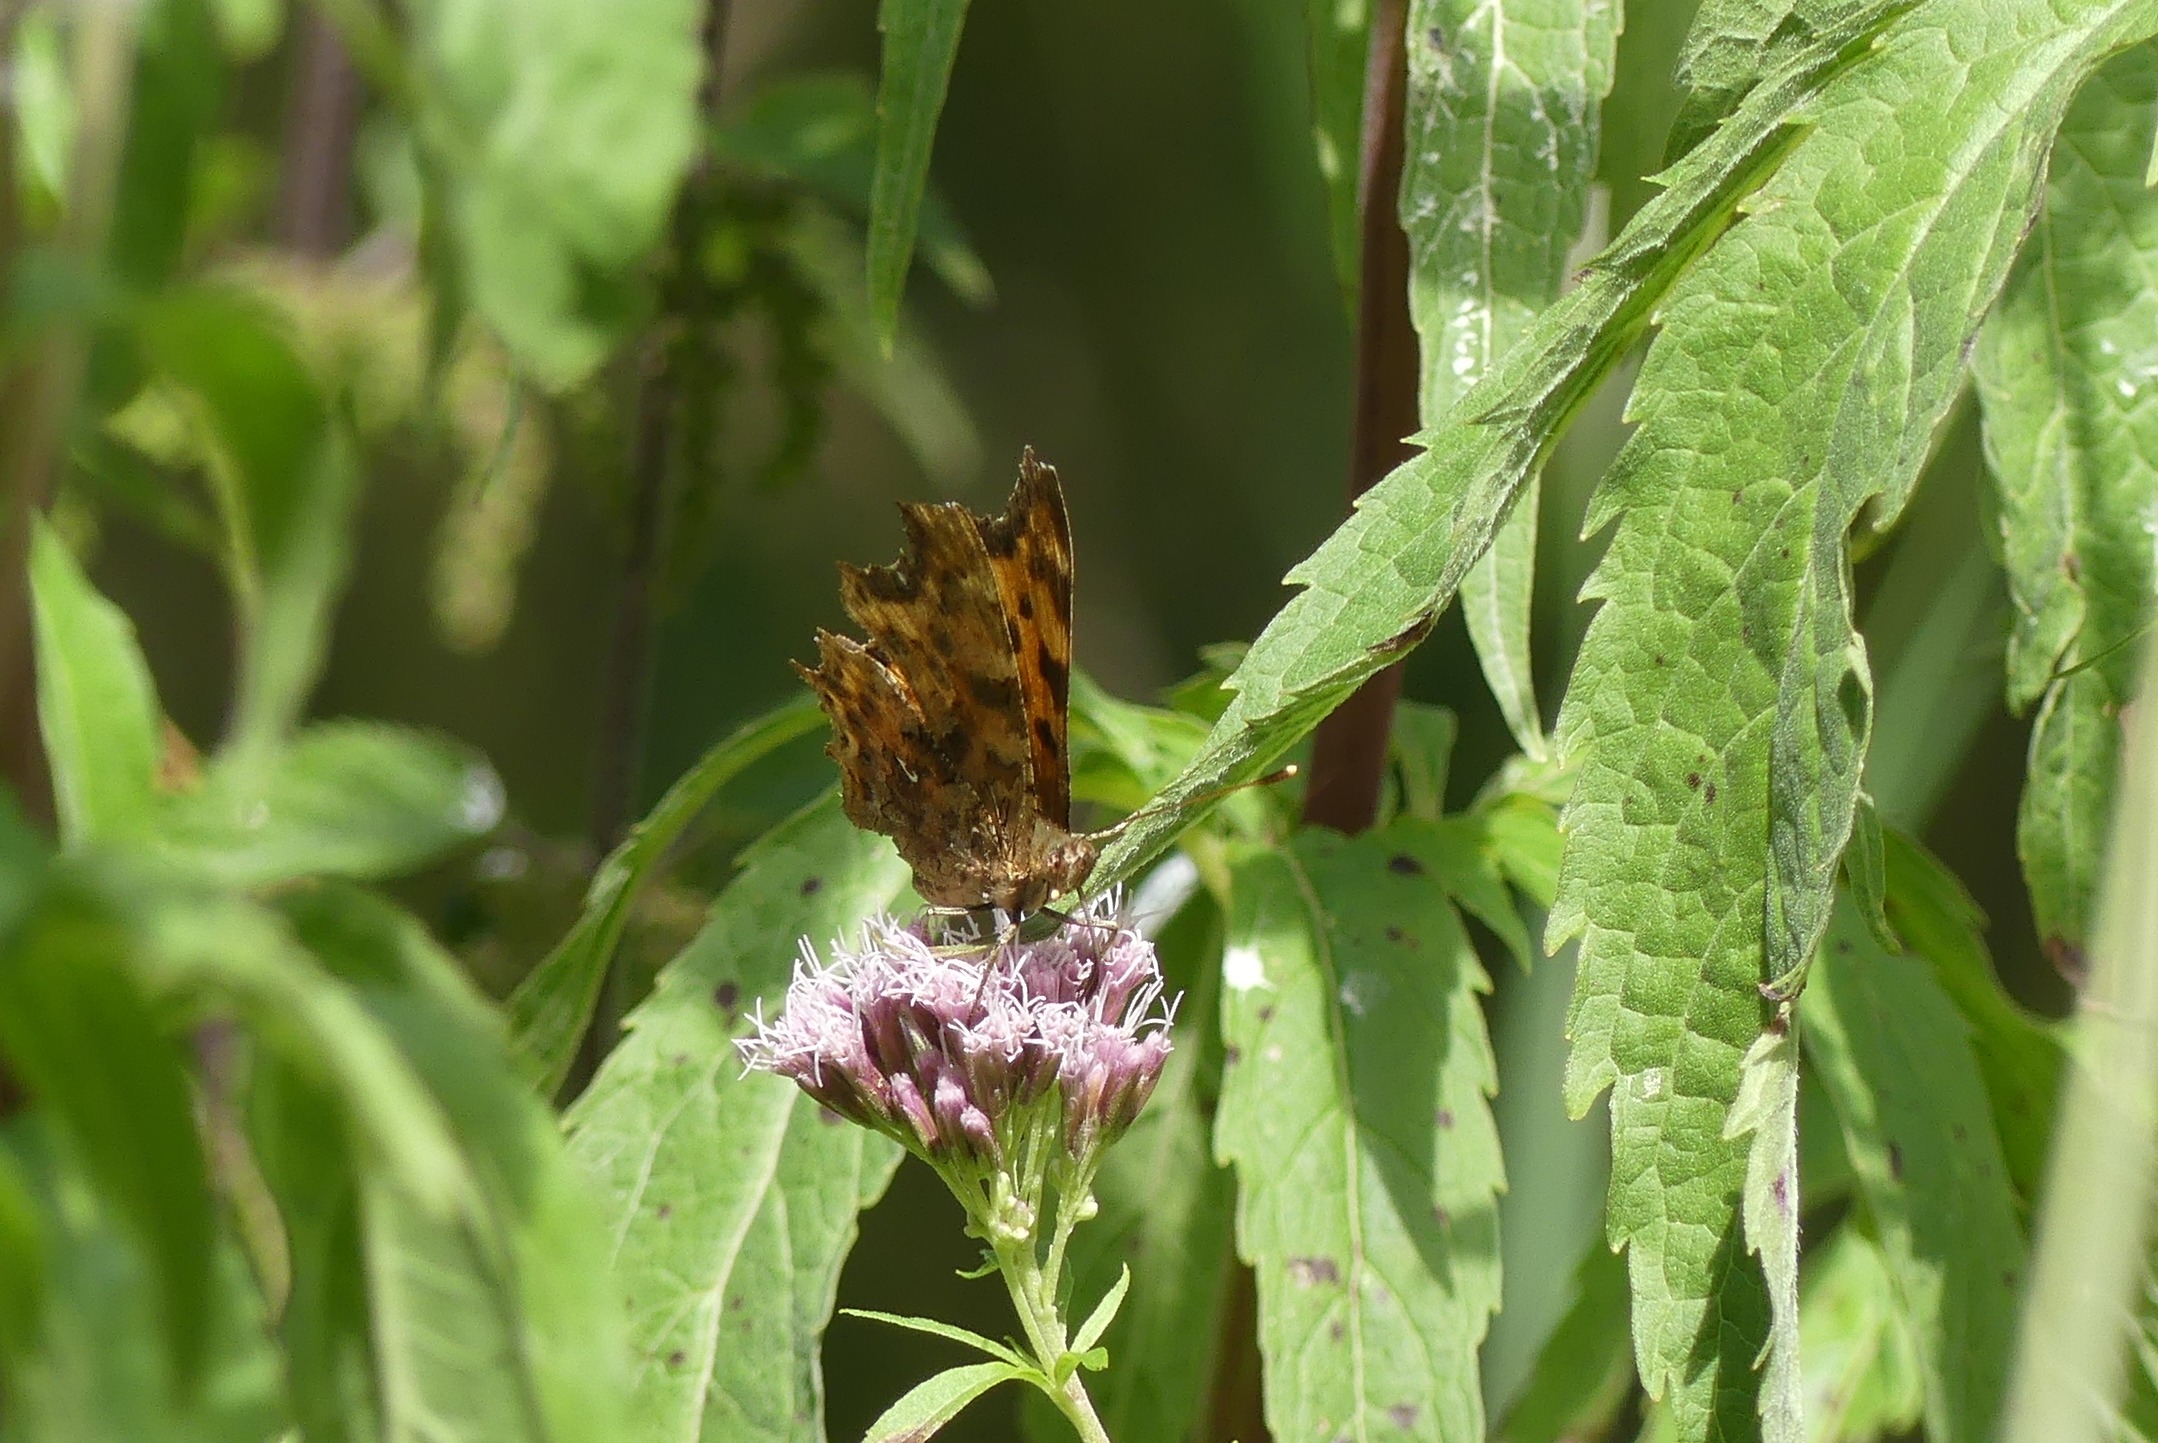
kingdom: Animalia
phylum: Arthropoda
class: Insecta
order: Lepidoptera
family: Nymphalidae
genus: Polygonia
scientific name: Polygonia c-album
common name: Det hvide C
